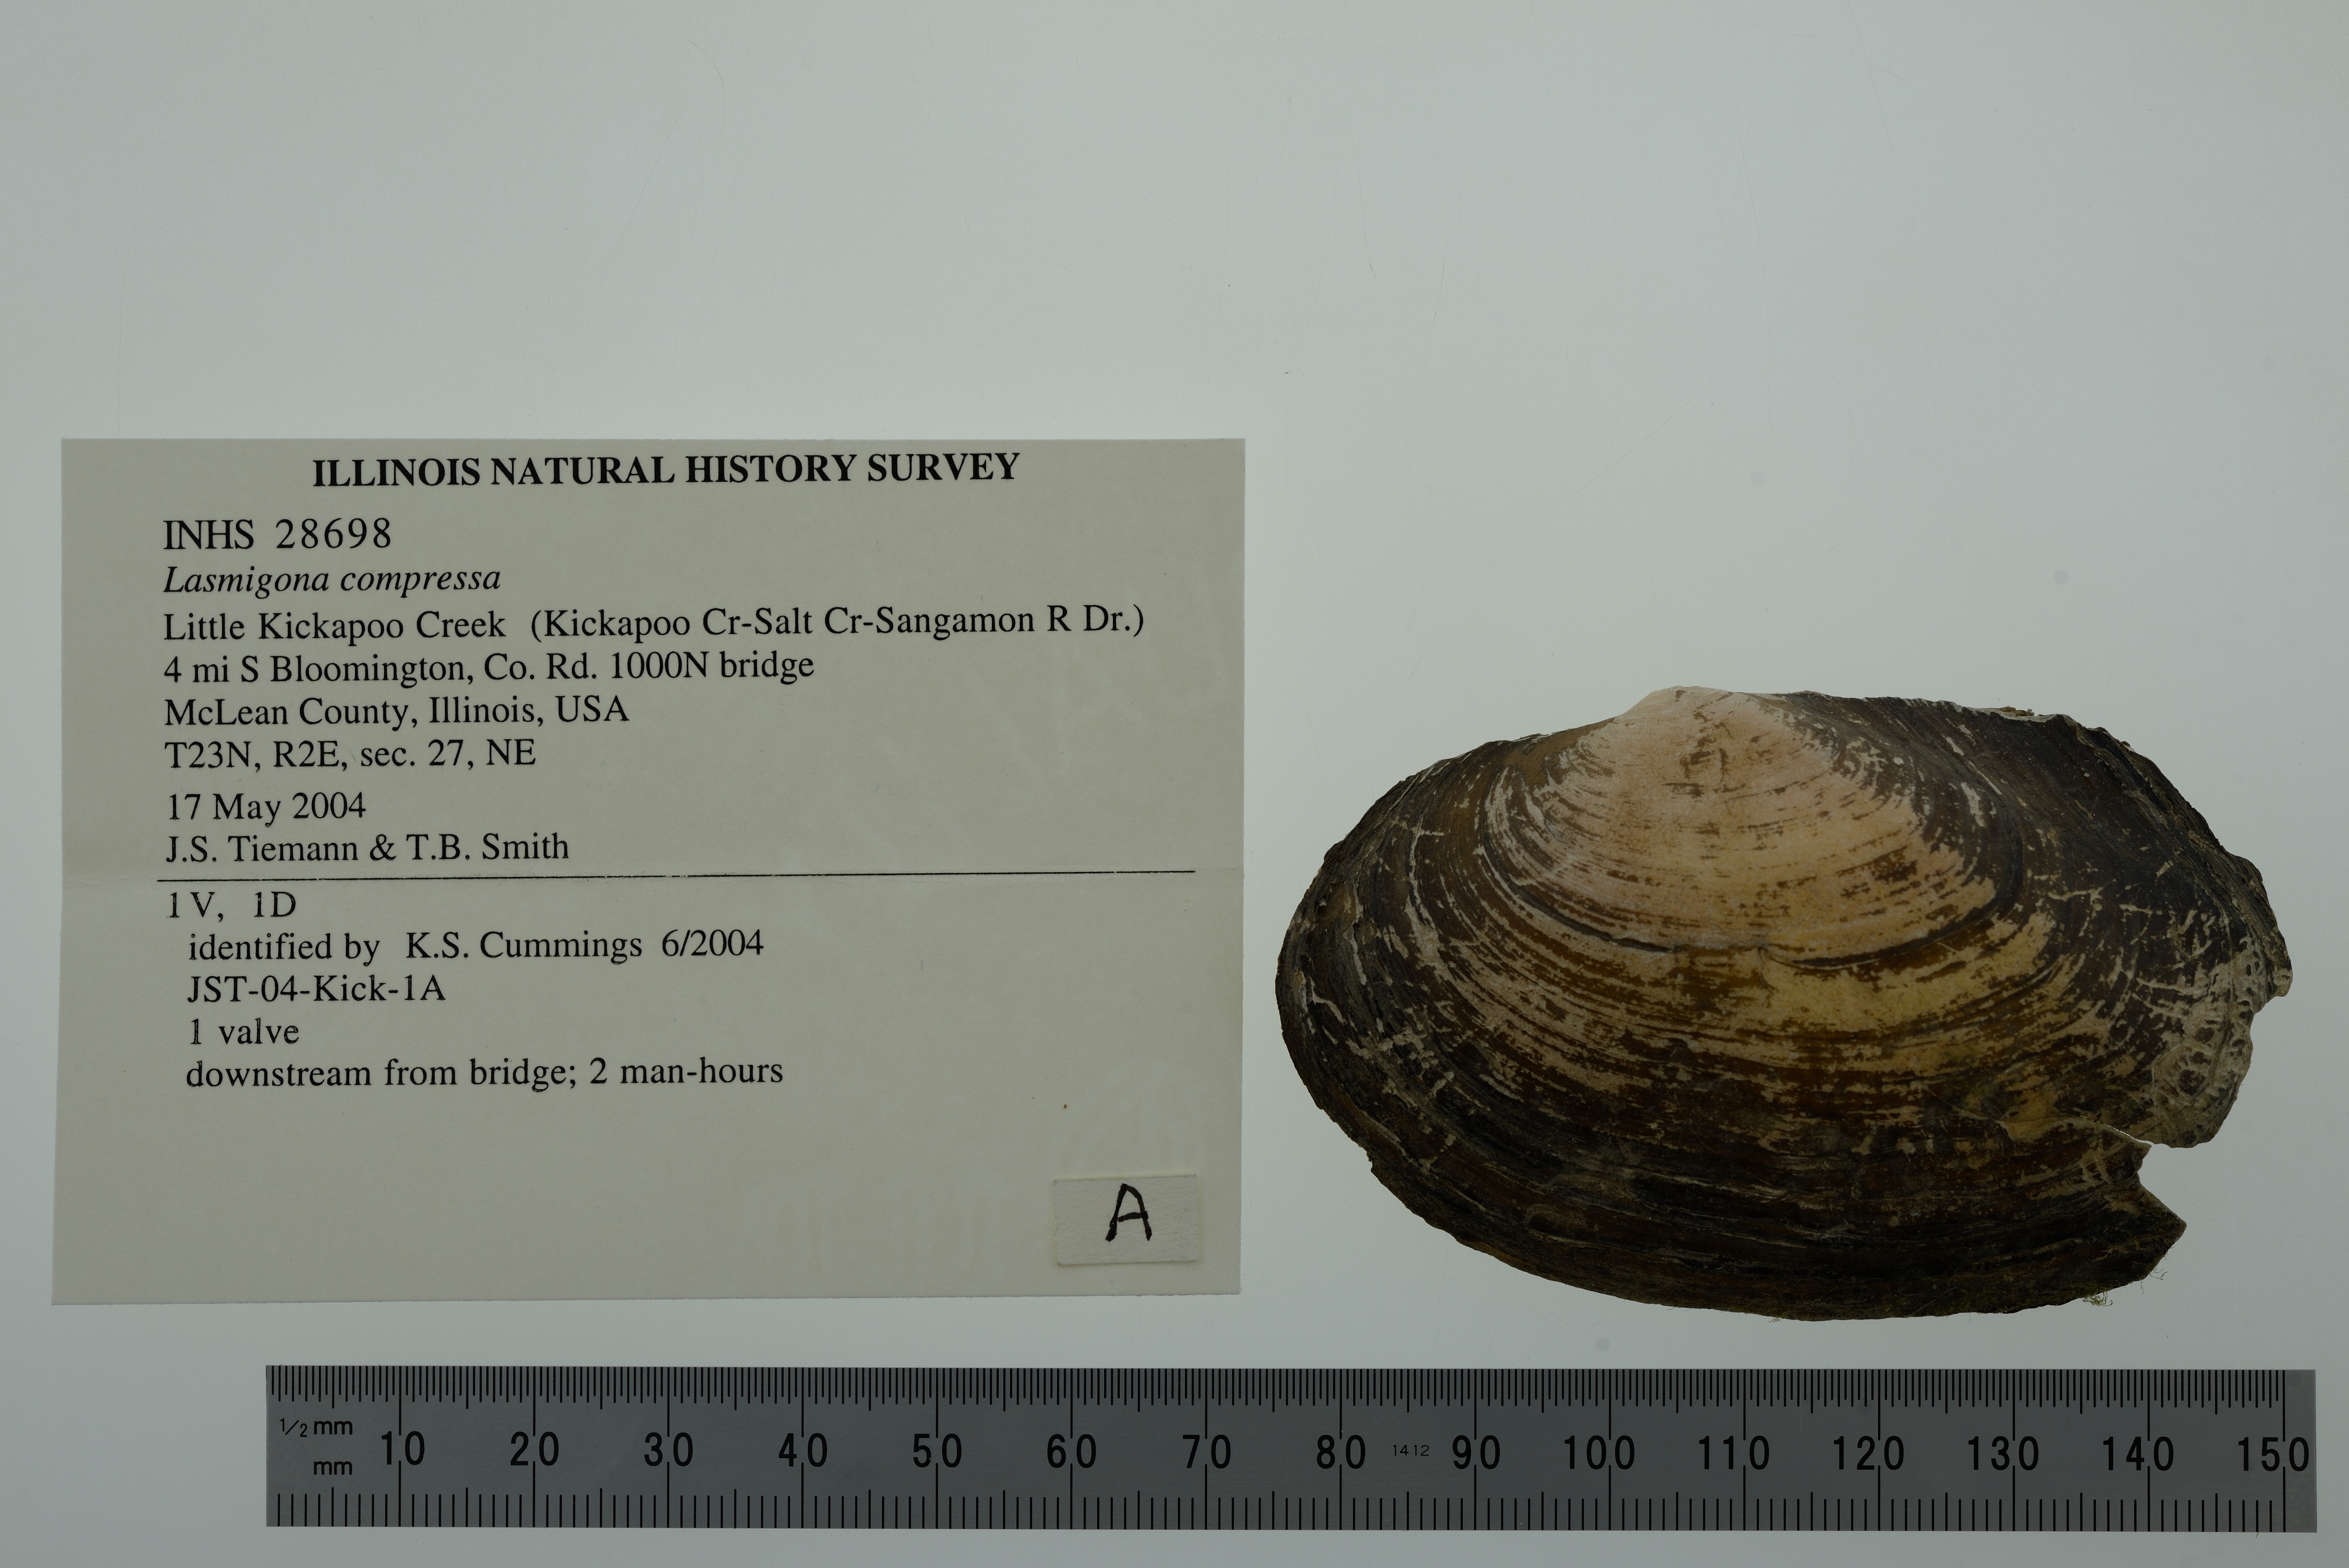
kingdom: Animalia
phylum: Mollusca
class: Bivalvia
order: Unionida
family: Unionidae
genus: Lasmigona
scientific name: Lasmigona compressa
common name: Creek heelsplitter
